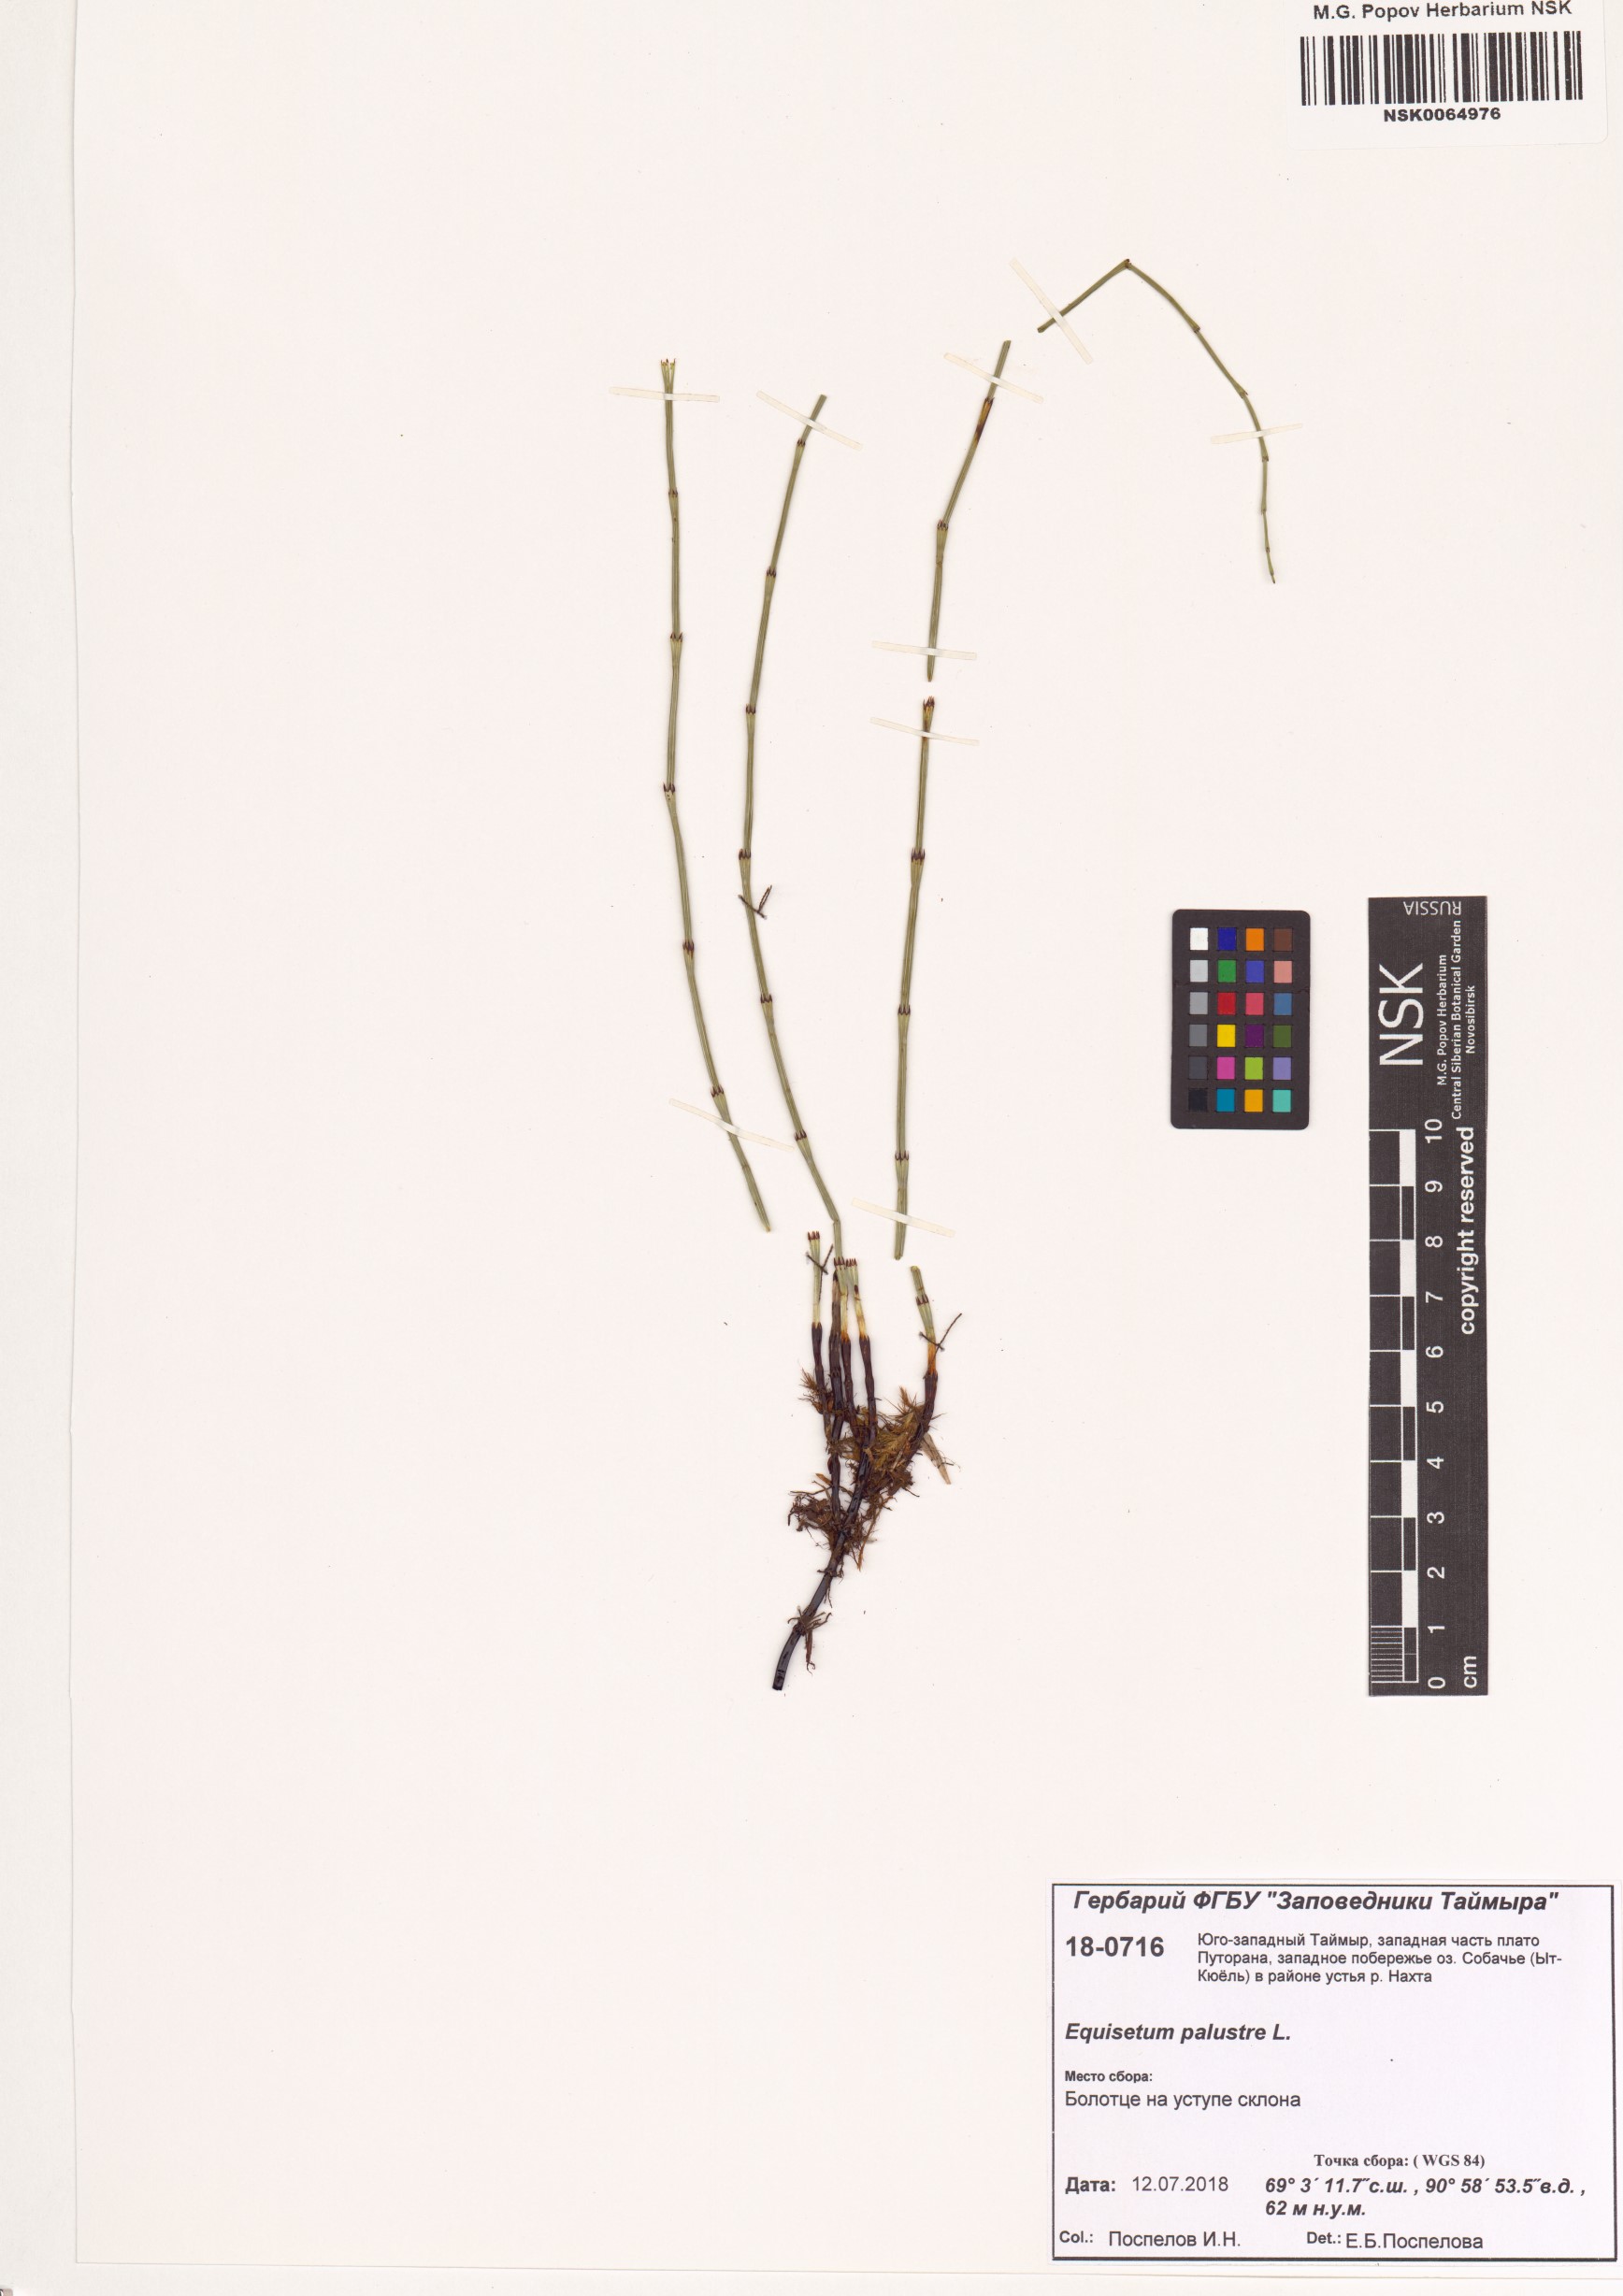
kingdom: Plantae
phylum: Tracheophyta
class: Polypodiopsida
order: Equisetales
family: Equisetaceae
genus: Equisetum
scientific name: Equisetum palustre
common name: Marsh horsetail
